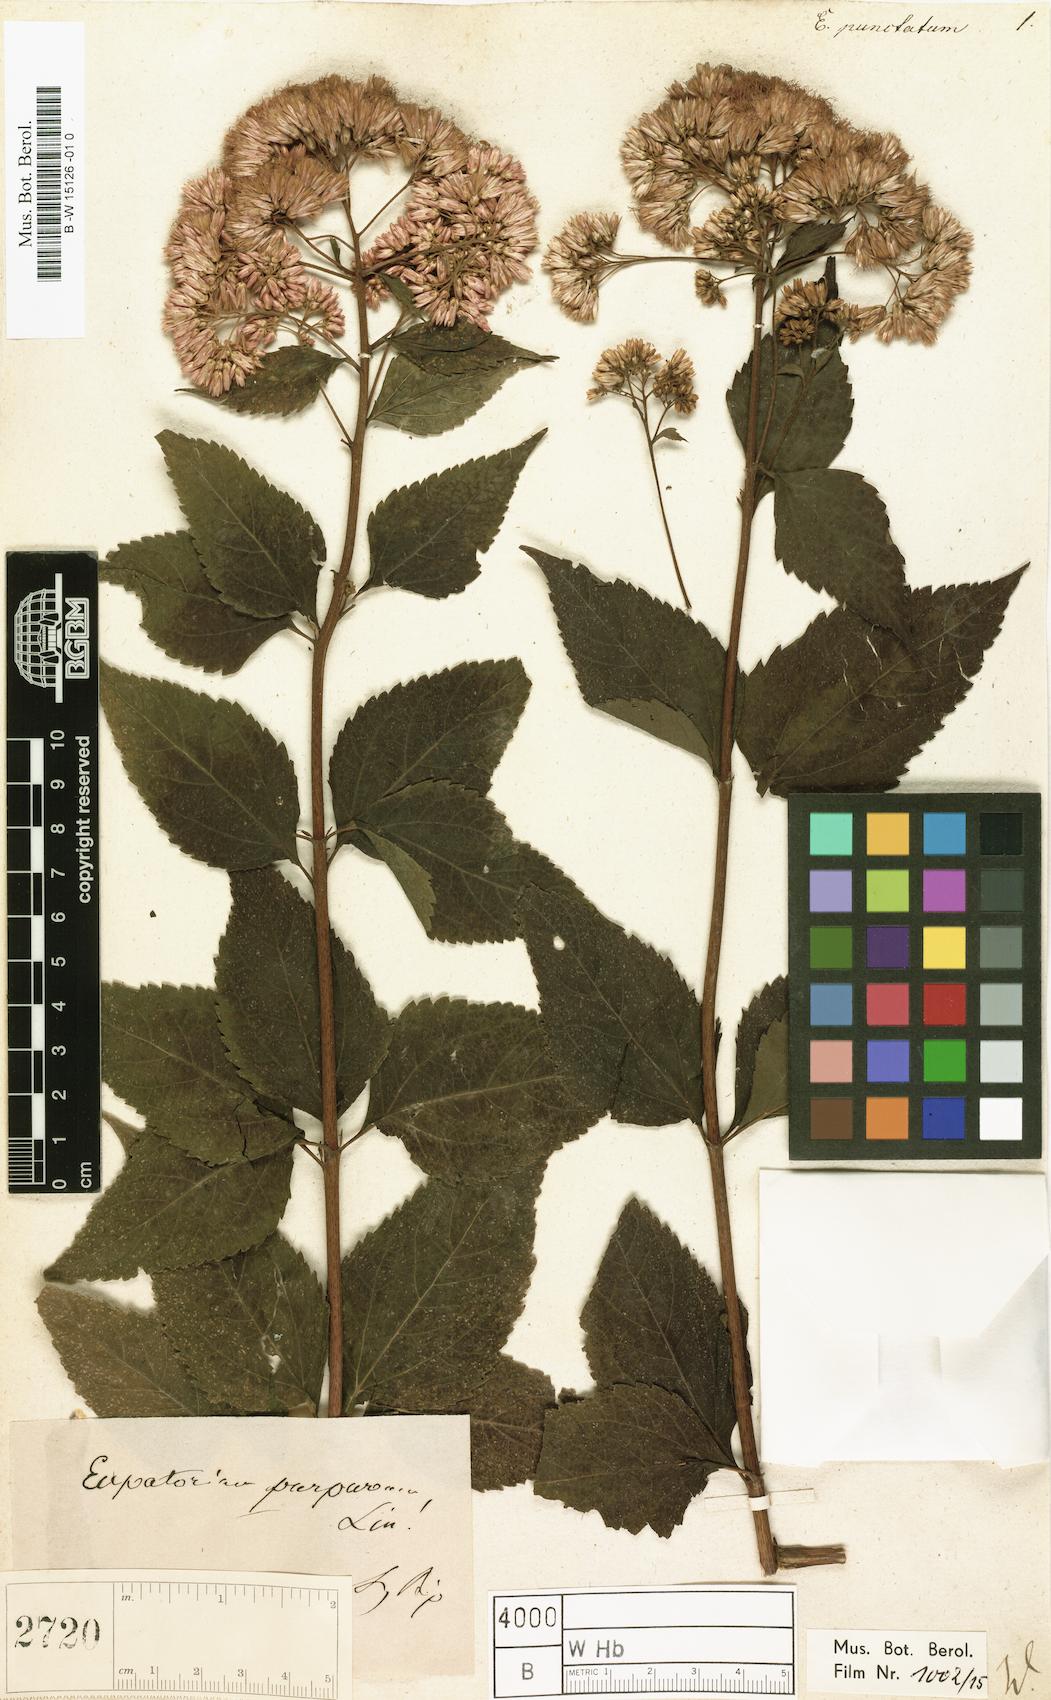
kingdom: Plantae
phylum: Tracheophyta
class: Magnoliopsida
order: Asterales
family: Asteraceae
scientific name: Asteraceae
